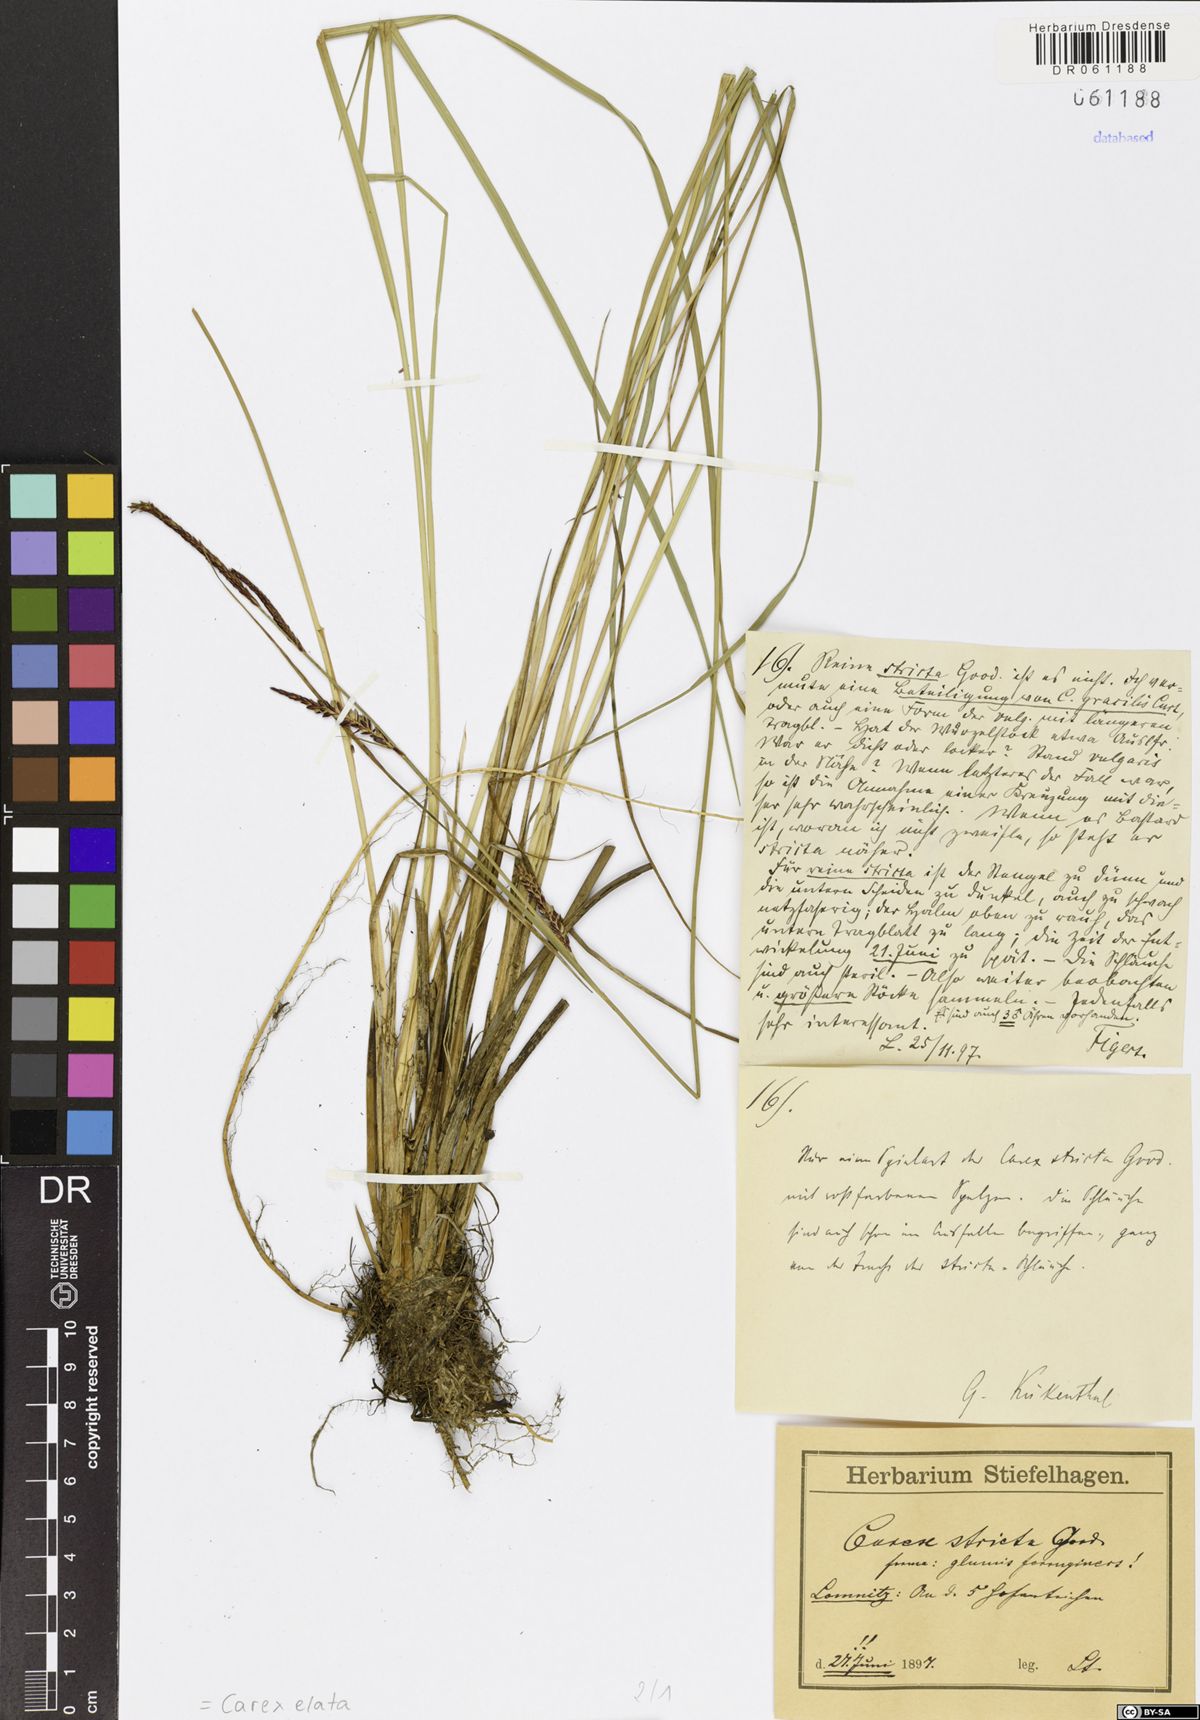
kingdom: Plantae
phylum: Tracheophyta
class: Liliopsida
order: Poales
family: Cyperaceae
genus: Carex
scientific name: Carex elata
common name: Tufted sedge
